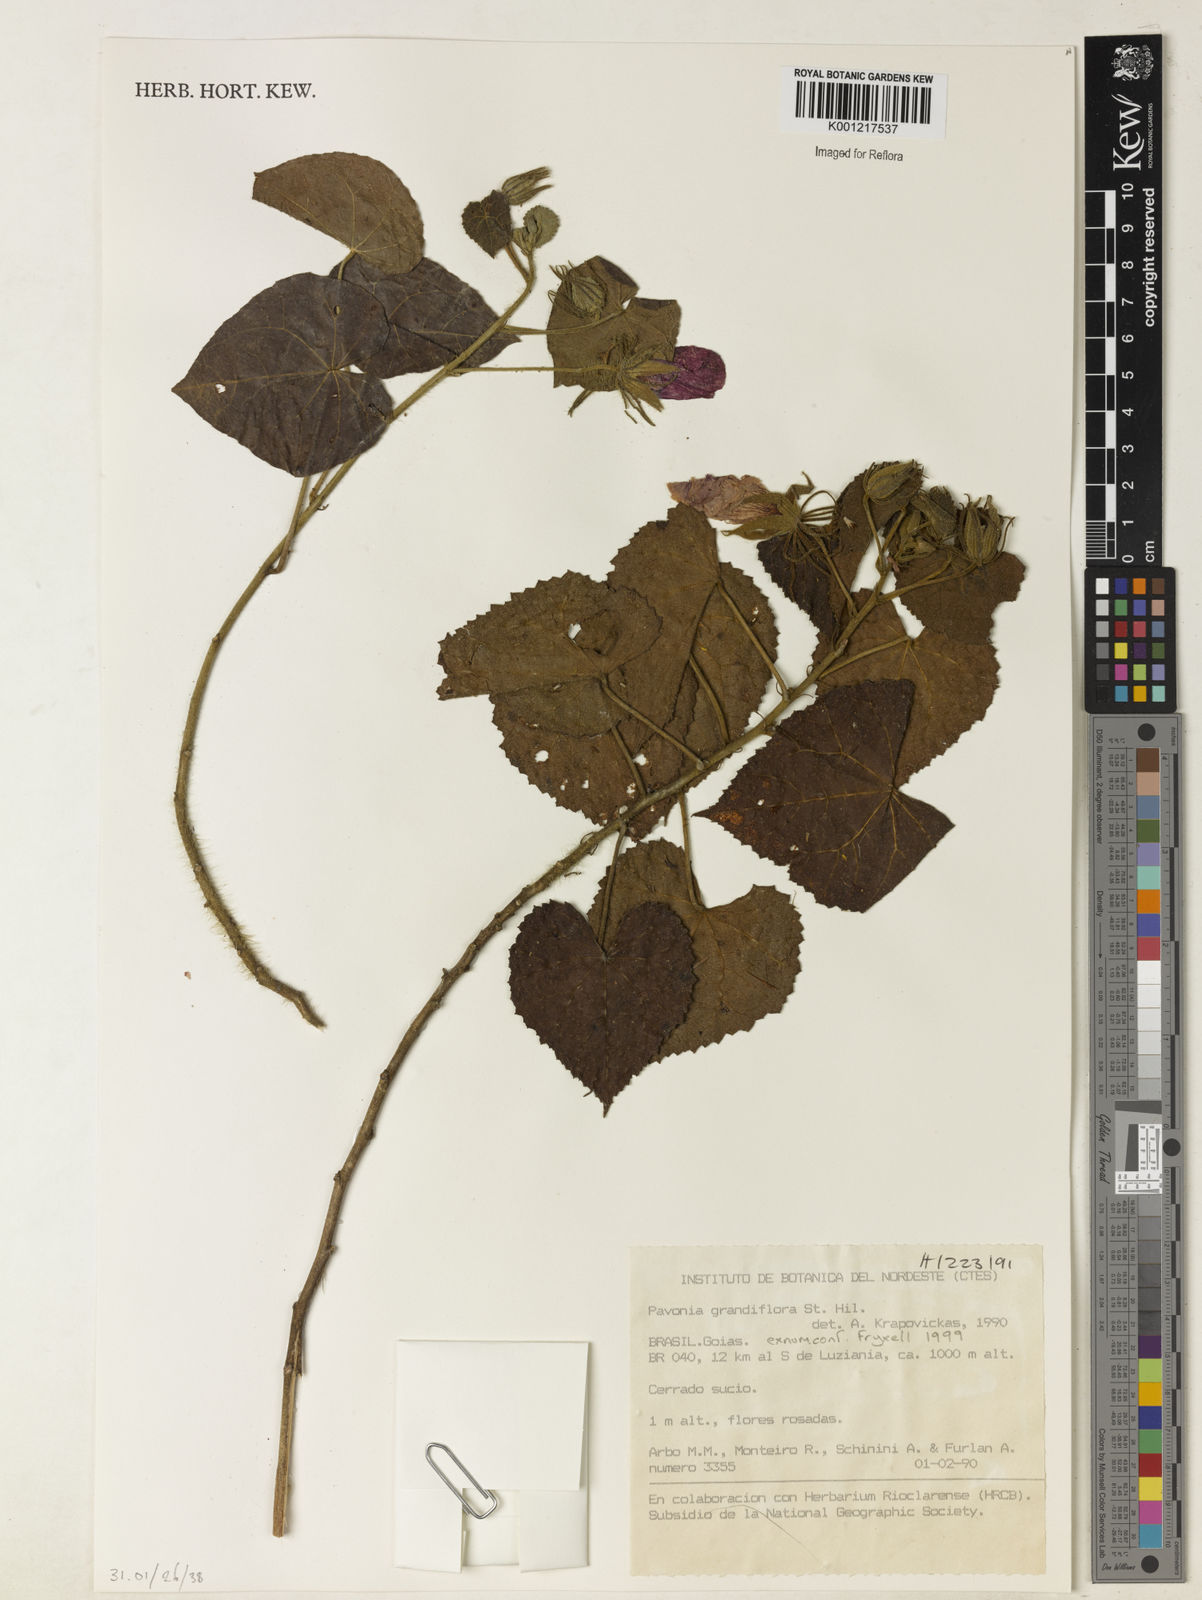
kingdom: Plantae
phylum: Tracheophyta
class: Magnoliopsida
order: Malvales
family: Malvaceae
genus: Pavonia
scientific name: Pavonia grandiflora
